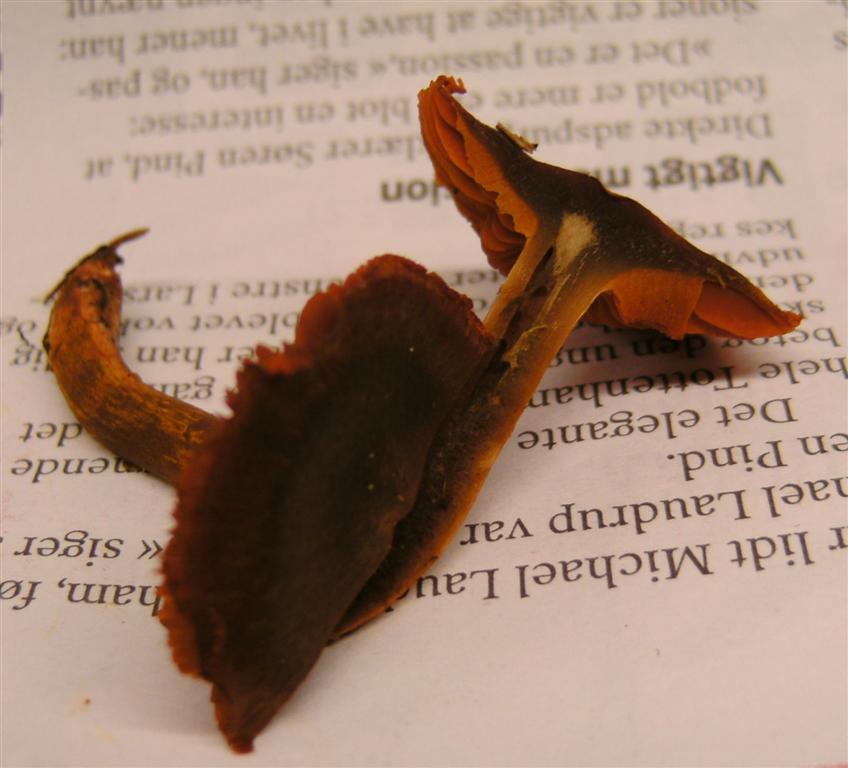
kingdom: Fungi
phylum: Basidiomycota
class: Agaricomycetes
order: Agaricales
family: Cortinariaceae
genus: Cortinarius
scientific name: Cortinarius malicorius
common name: grønkødet slørhat
